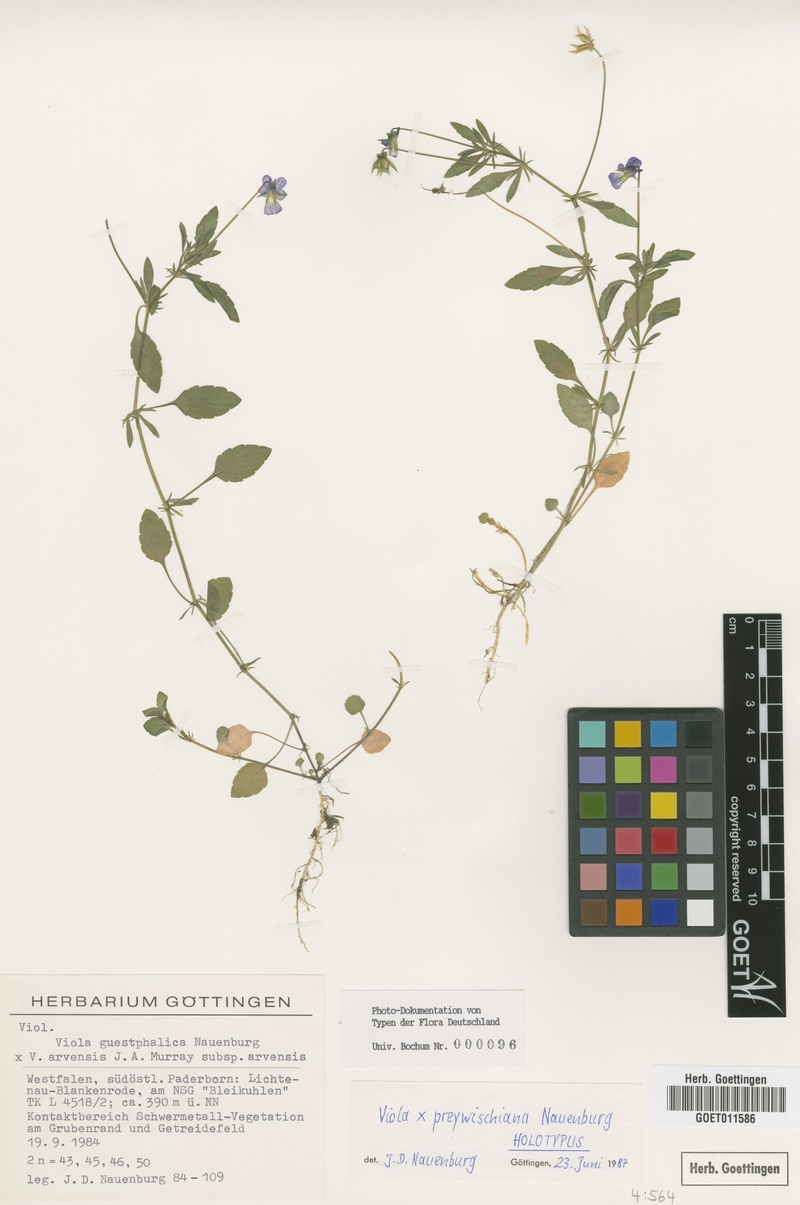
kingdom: Plantae
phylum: Tracheophyta
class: Magnoliopsida
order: Malpighiales
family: Violaceae
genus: Viola
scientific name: Viola preywischiana
